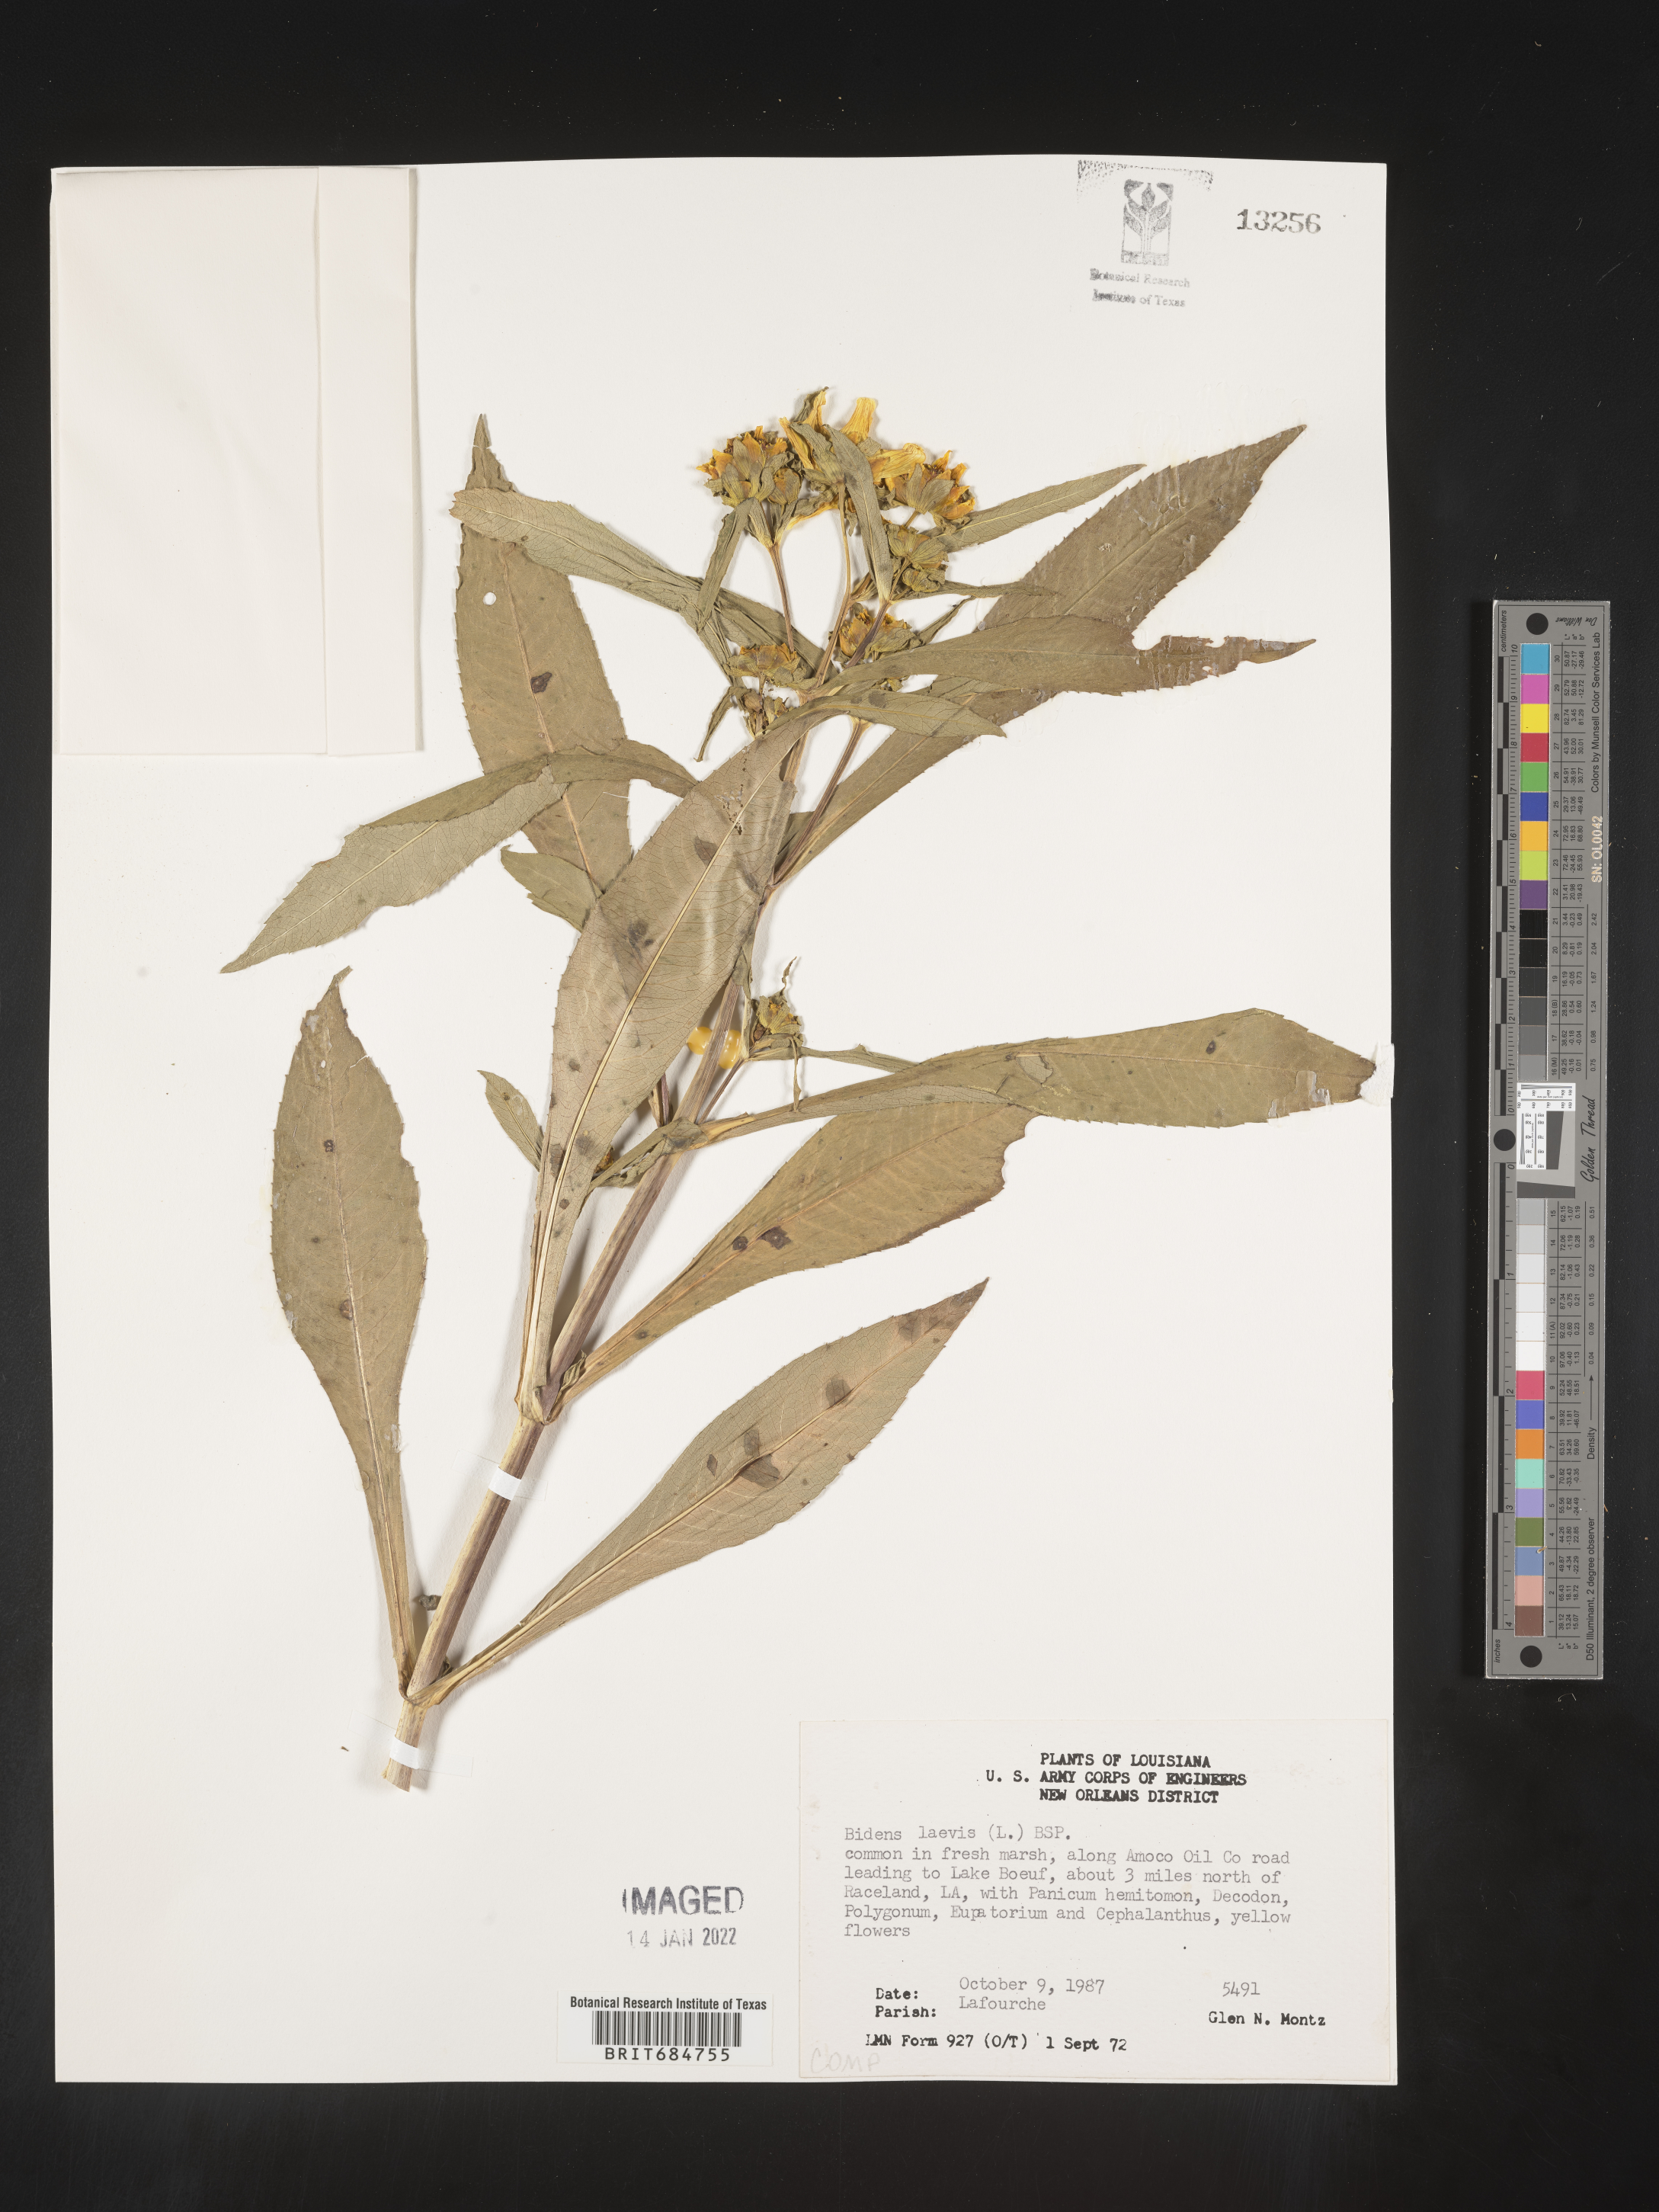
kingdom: Plantae
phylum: Tracheophyta
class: Magnoliopsida
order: Asterales
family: Asteraceae
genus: Bidens
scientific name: Bidens laevis
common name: Larger bur-marigold
